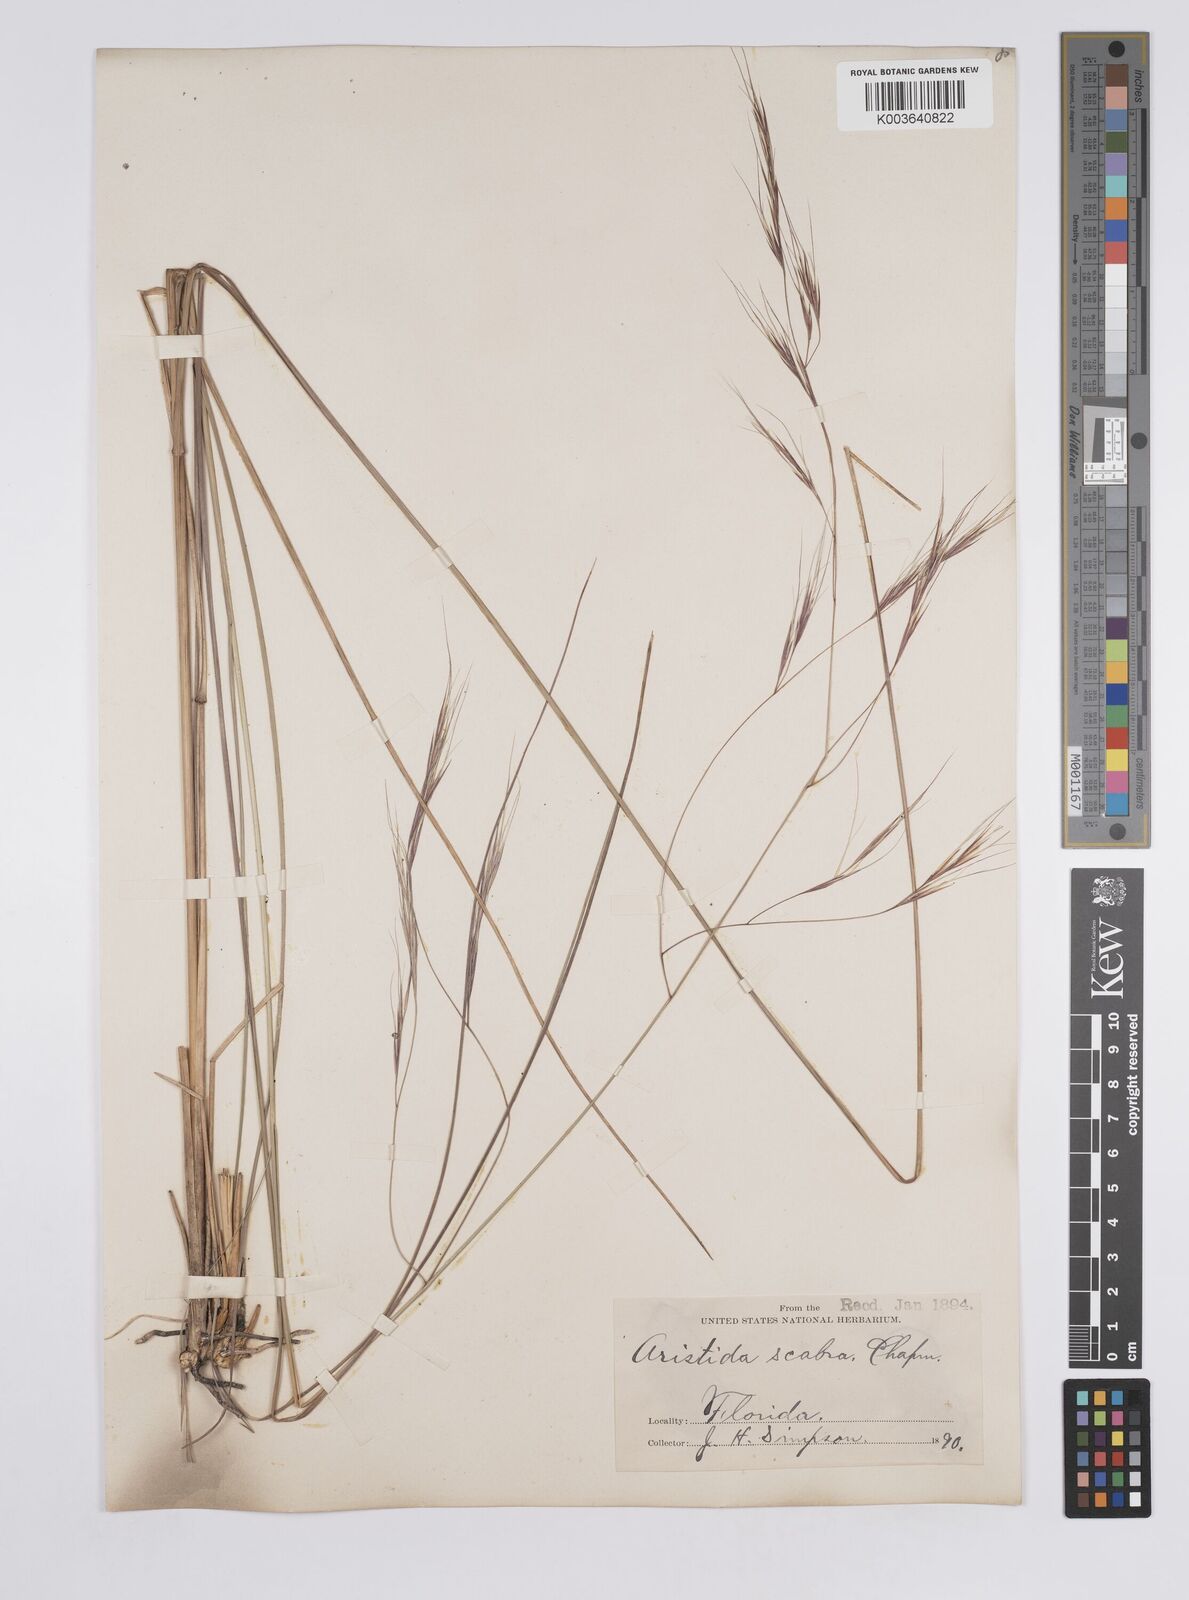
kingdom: Plantae
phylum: Tracheophyta
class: Liliopsida
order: Poales
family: Poaceae
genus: Aristida
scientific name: Aristida patula
